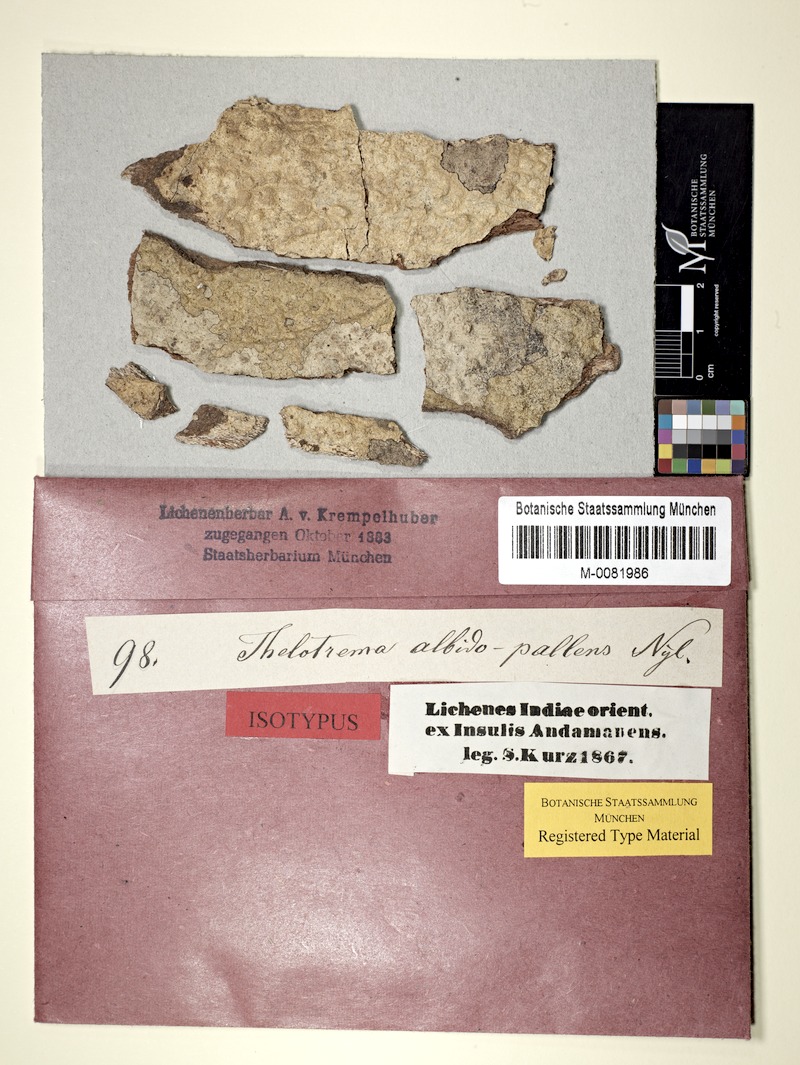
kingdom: Fungi
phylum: Ascomycota
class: Lecanoromycetes
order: Ostropales
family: Graphidaceae
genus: Thelotrema
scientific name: Thelotrema albidopallens
